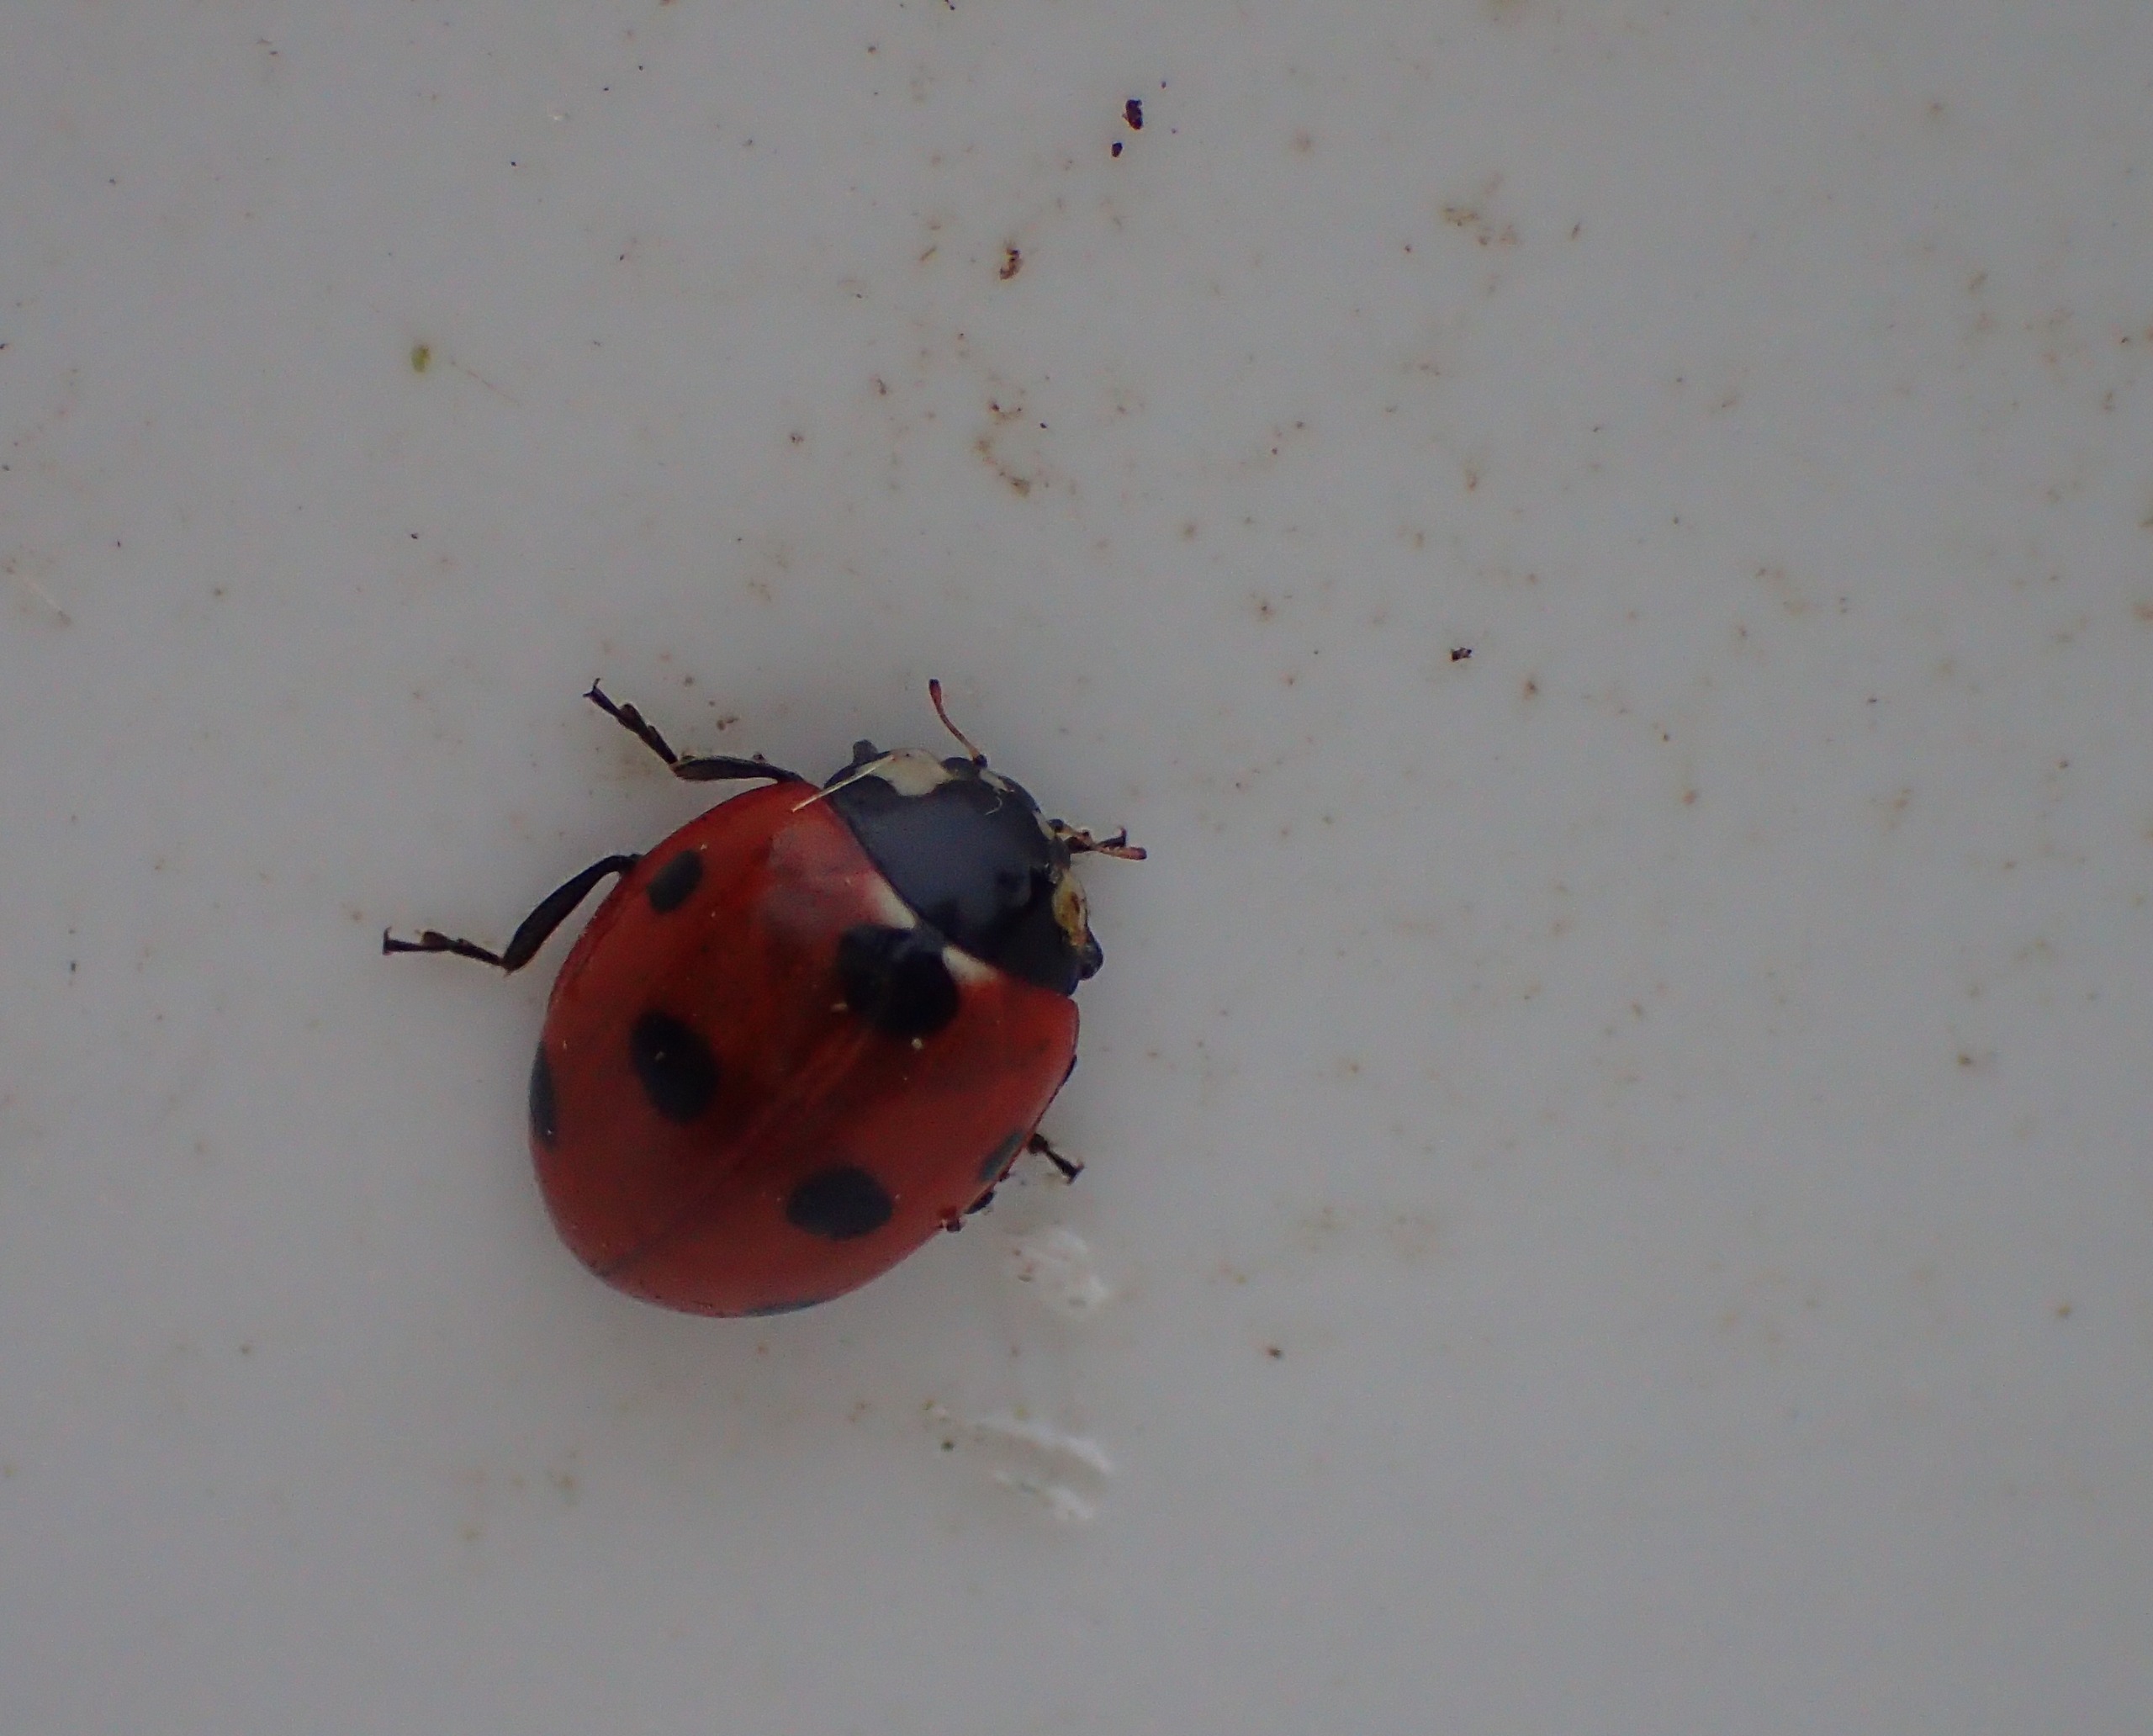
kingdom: Animalia
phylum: Arthropoda
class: Insecta
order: Coleoptera
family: Coccinellidae
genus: Coccinella
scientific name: Coccinella septempunctata
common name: Syvplettet mariehøne
